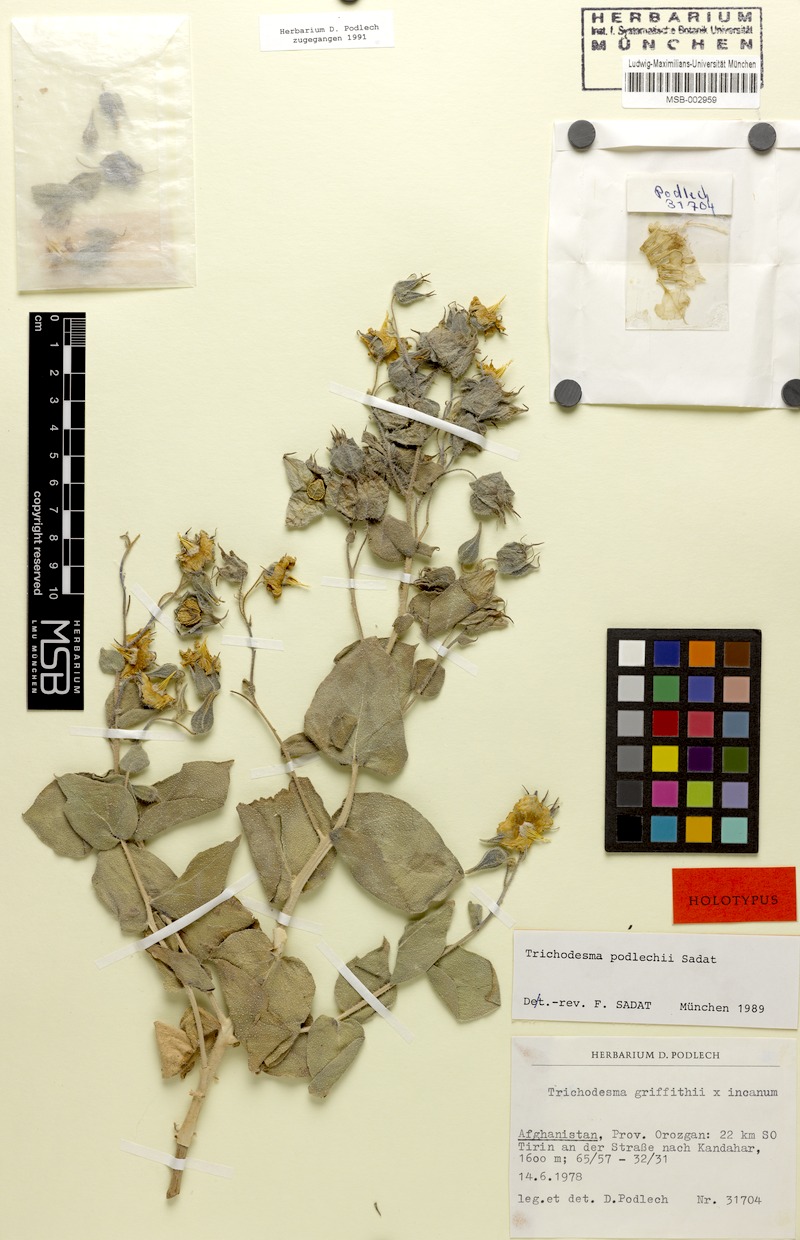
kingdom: Plantae
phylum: Tracheophyta
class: Magnoliopsida
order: Boraginales
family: Boraginaceae
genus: Trichodesma
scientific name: Trichodesma podlechii
